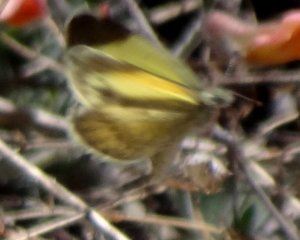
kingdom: Animalia
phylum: Arthropoda
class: Insecta
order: Lepidoptera
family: Pieridae
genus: Nathalis
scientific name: Nathalis iole
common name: Dainty Sulphur
